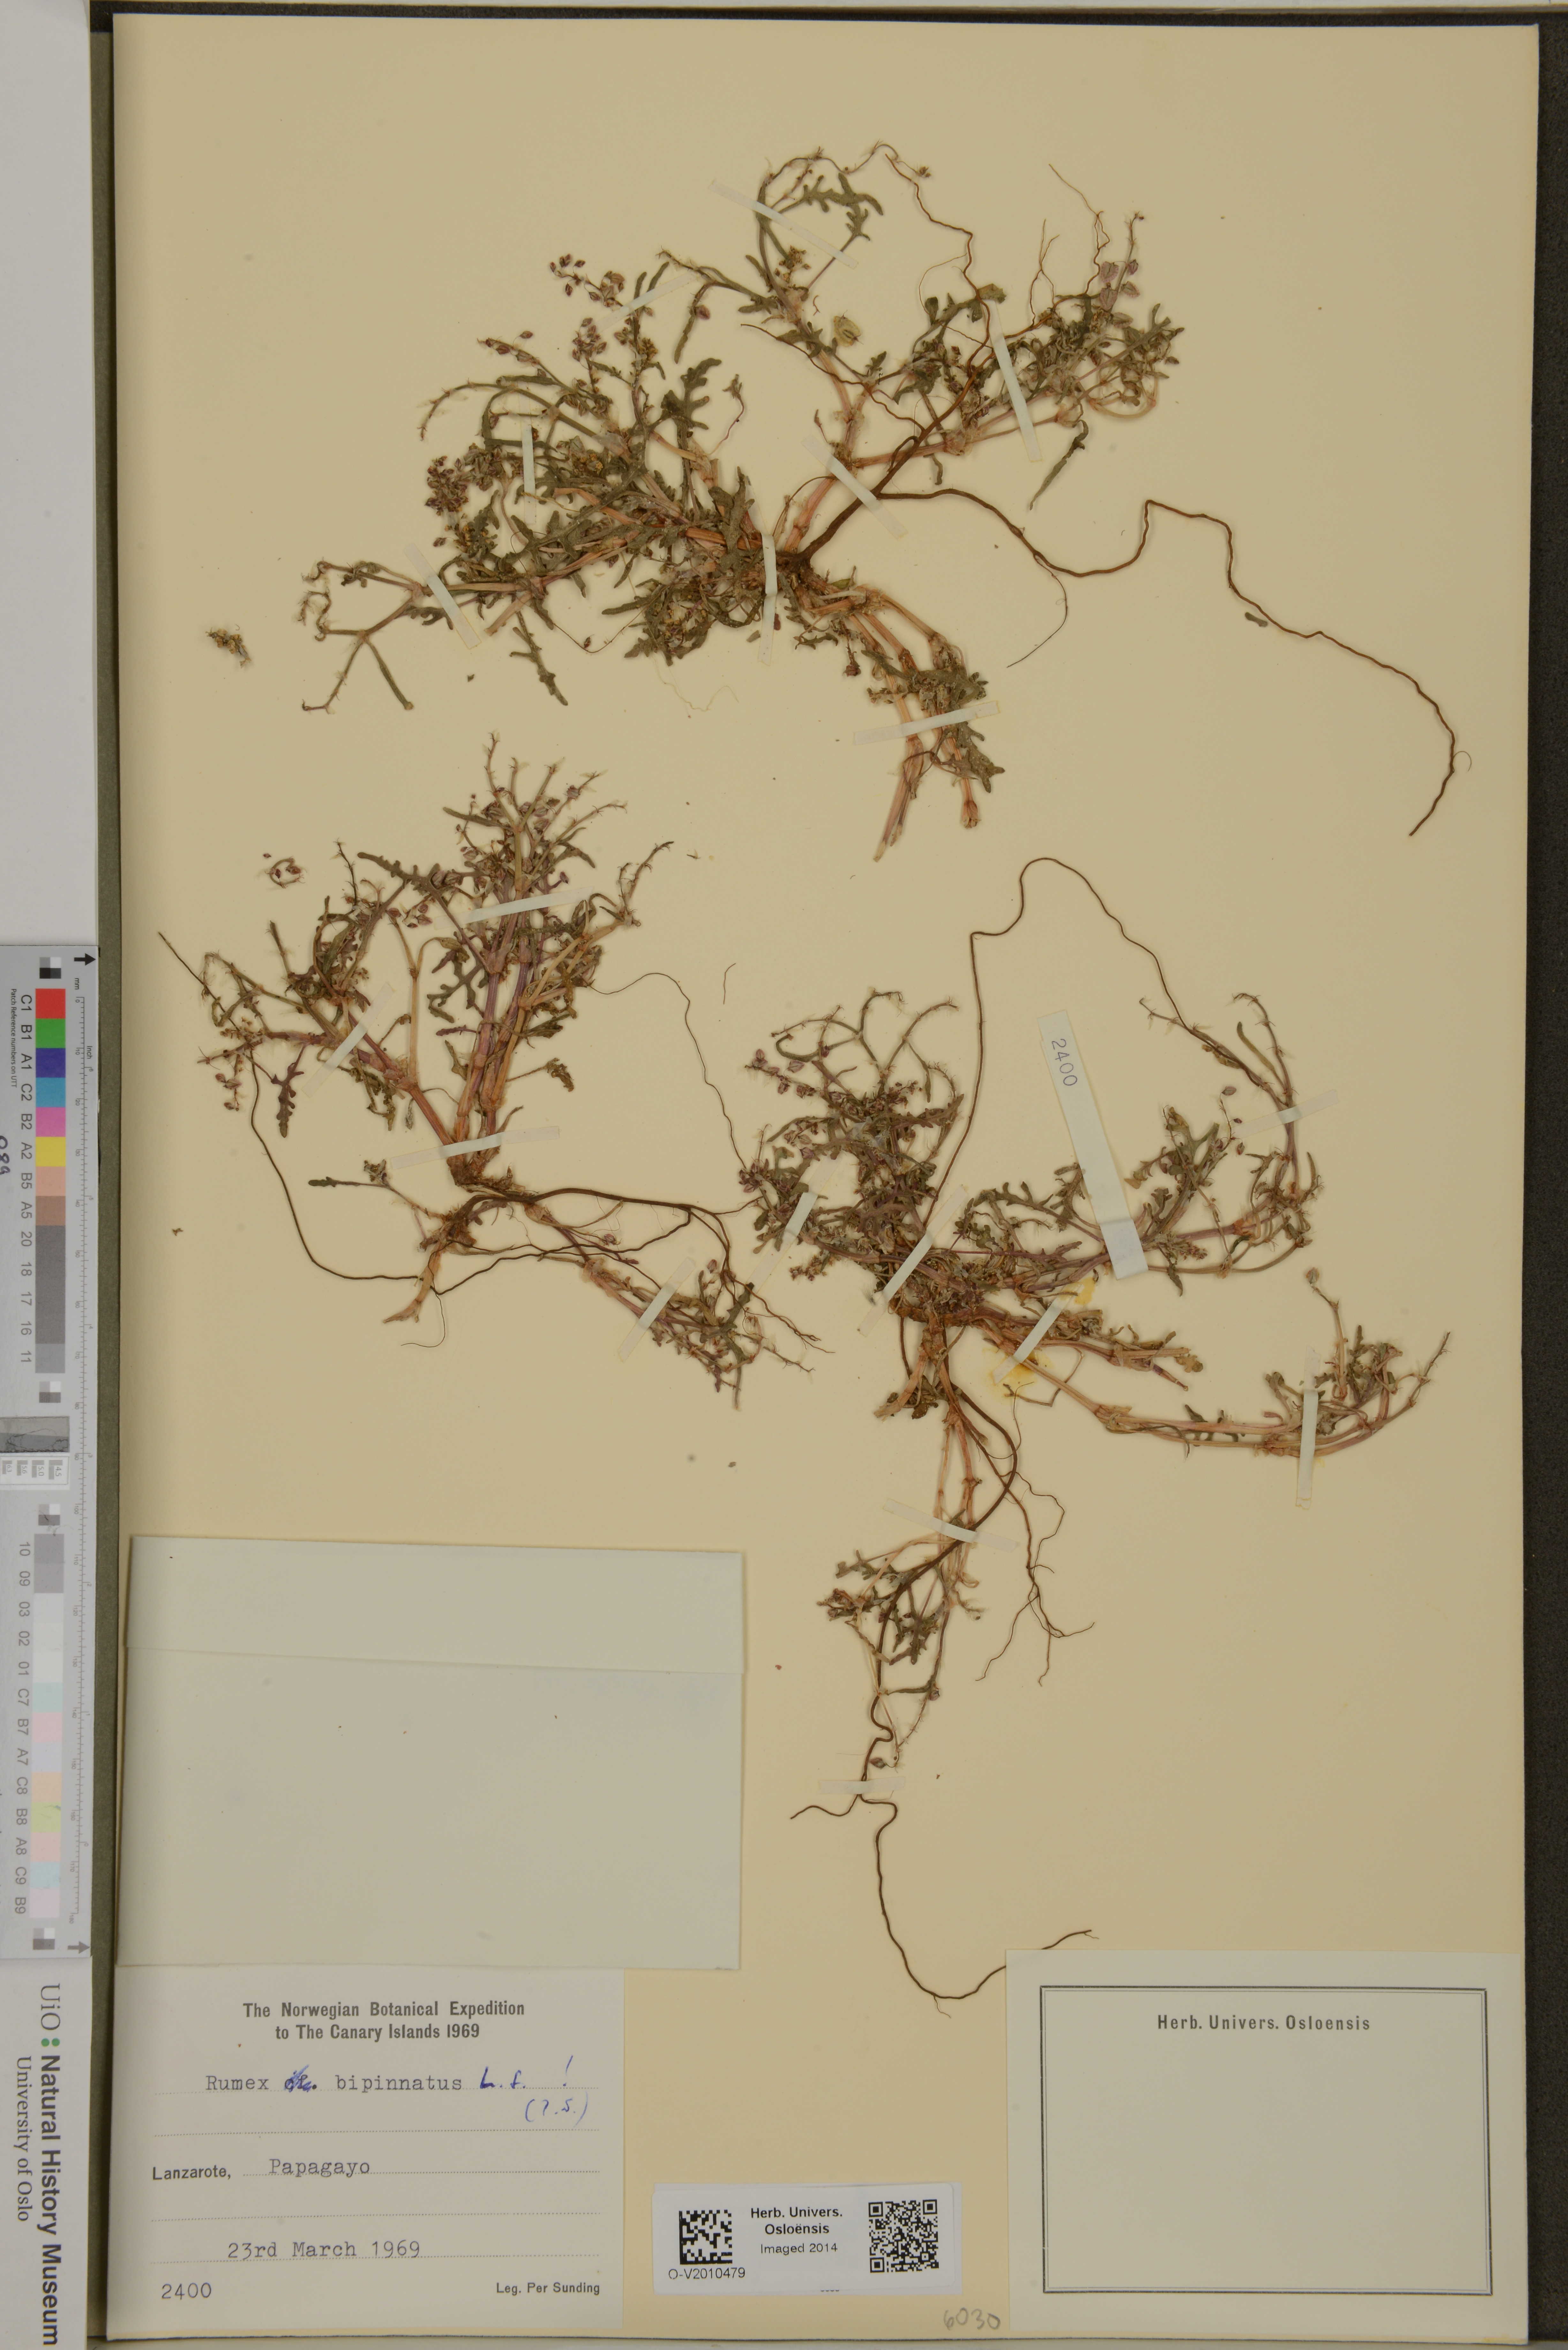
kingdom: Plantae
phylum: Tracheophyta
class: Magnoliopsida
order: Caryophyllales
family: Polygonaceae
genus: Rumex
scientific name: Rumex bipinnatus
